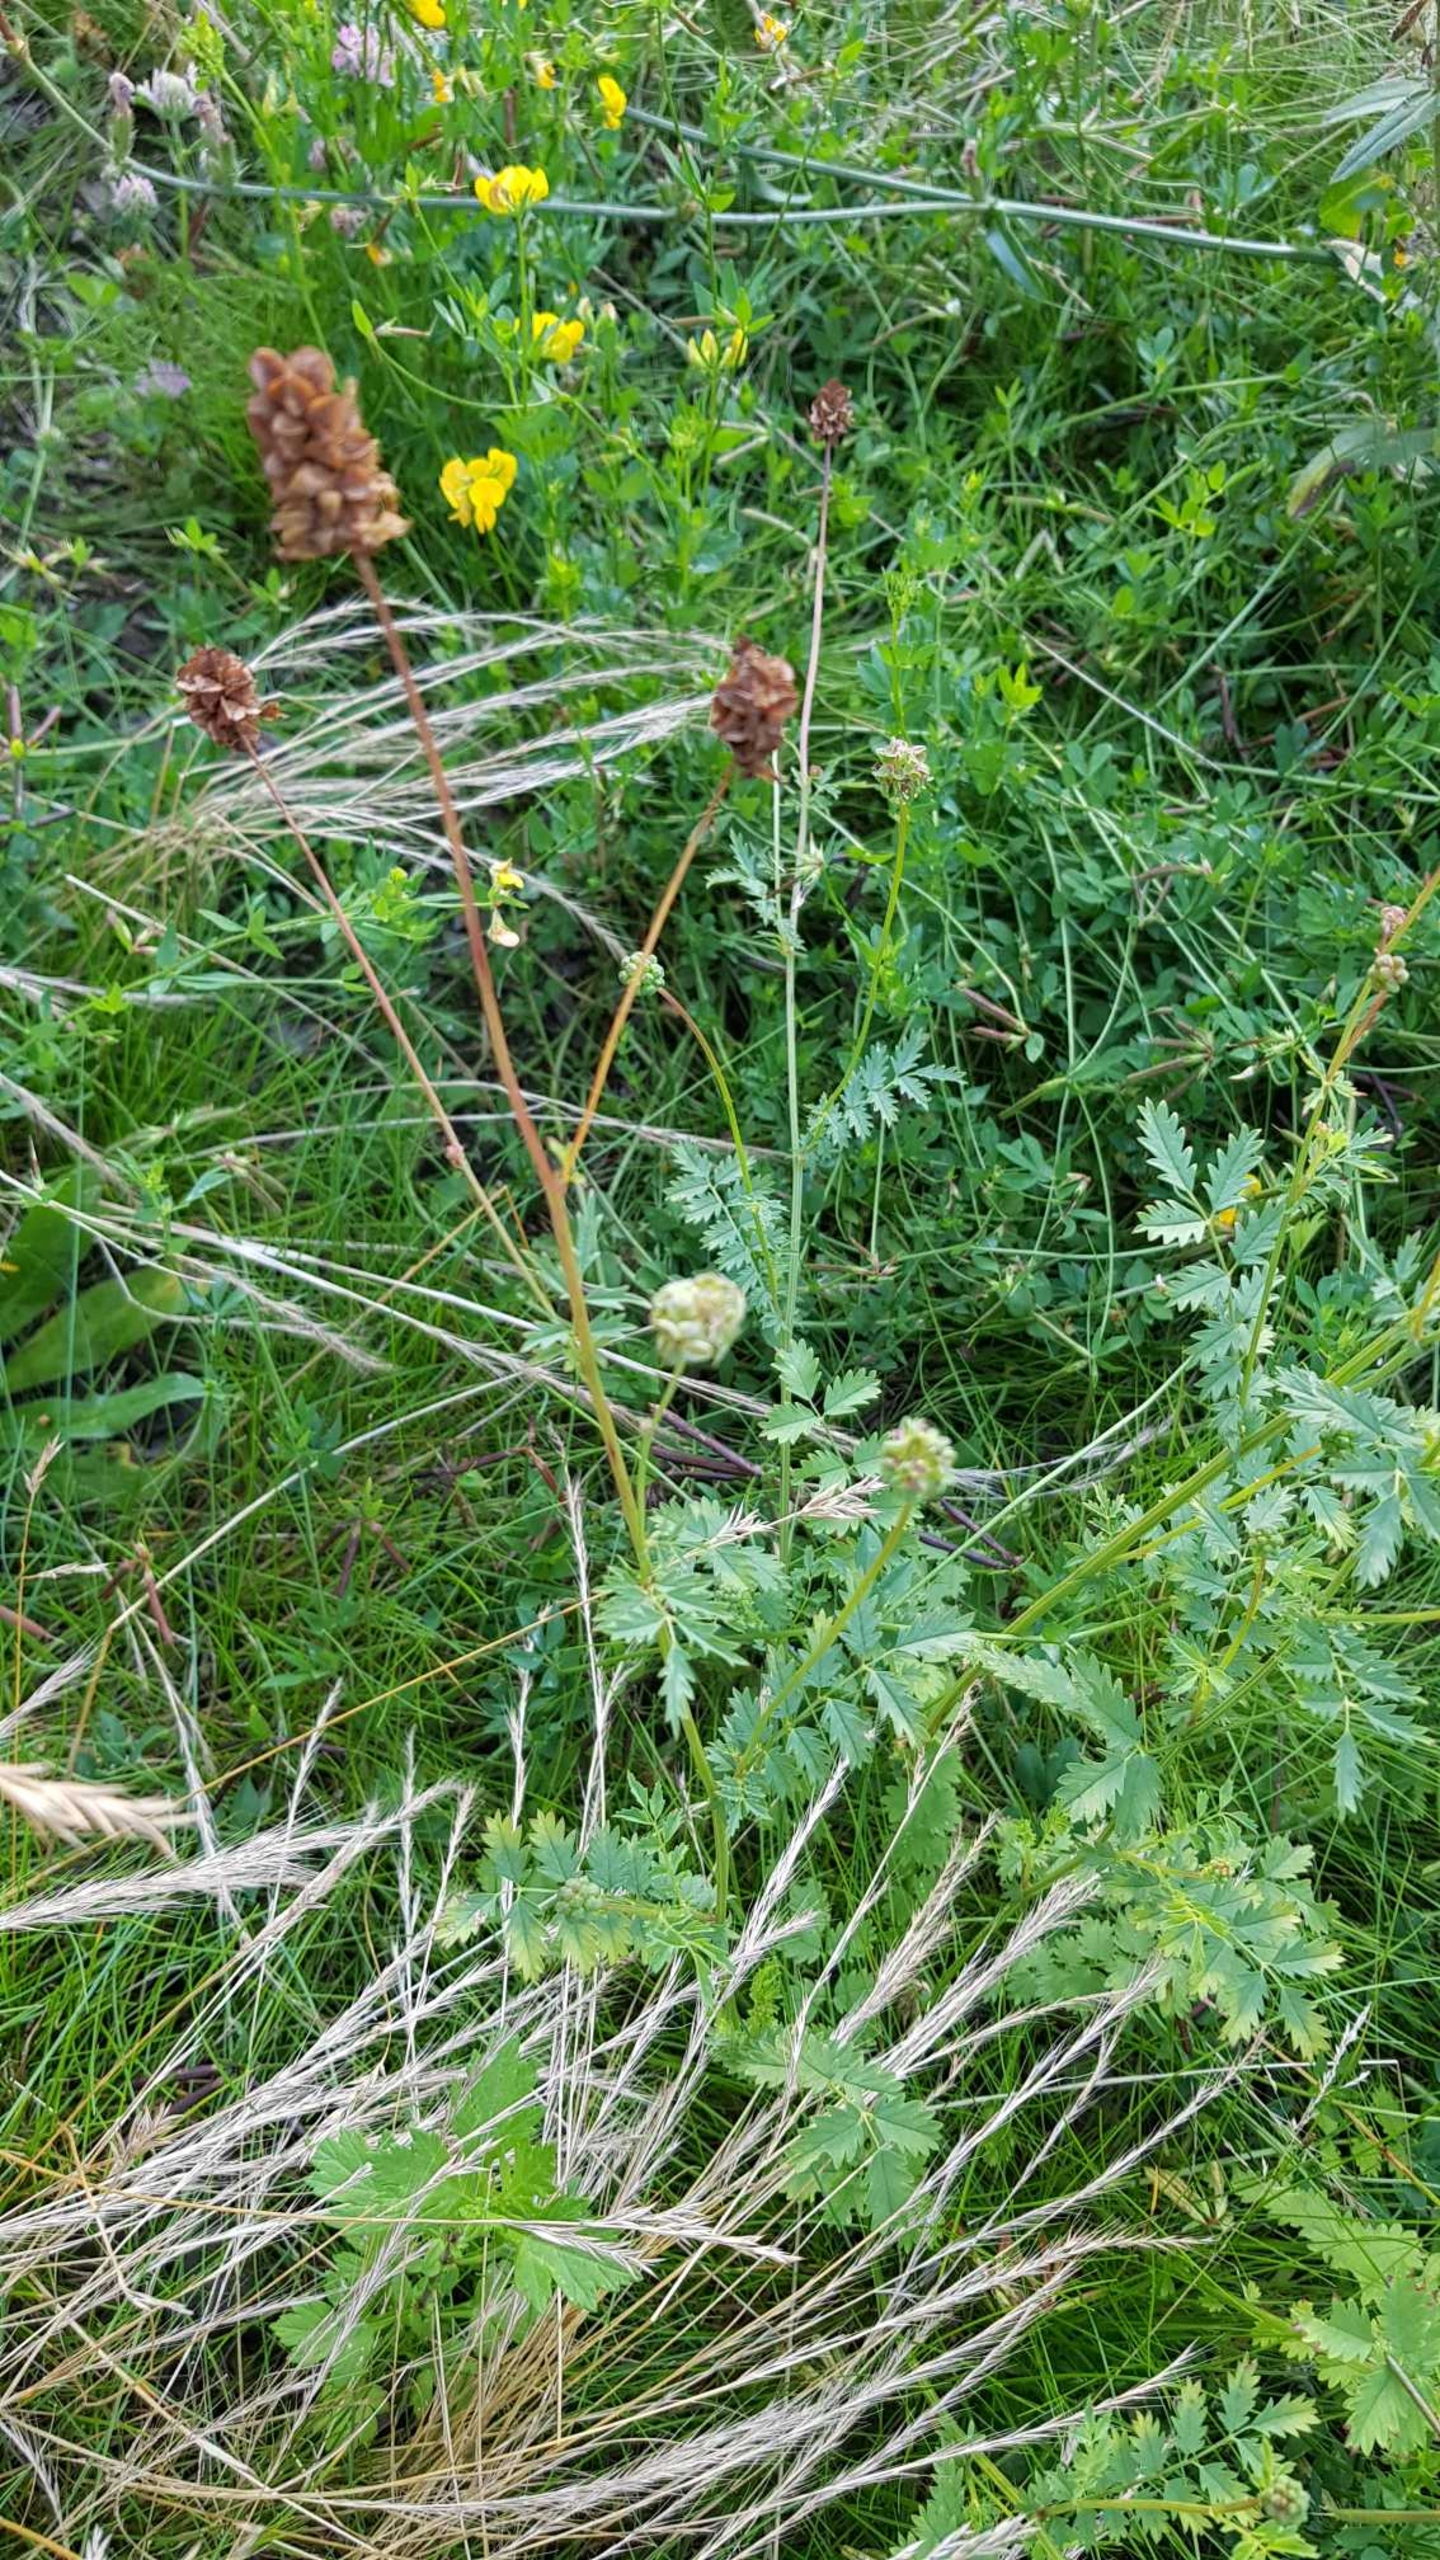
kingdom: Plantae
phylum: Tracheophyta
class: Magnoliopsida
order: Rosales
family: Rosaceae
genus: Poterium
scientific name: Poterium sanguisorba
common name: Vingefrøet bibernelle
